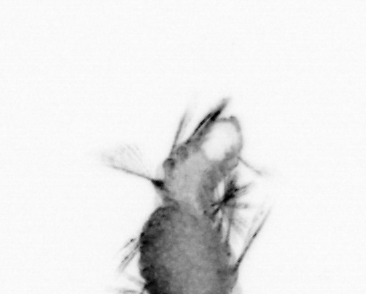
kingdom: Animalia
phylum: Annelida
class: Polychaeta
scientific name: Polychaeta
